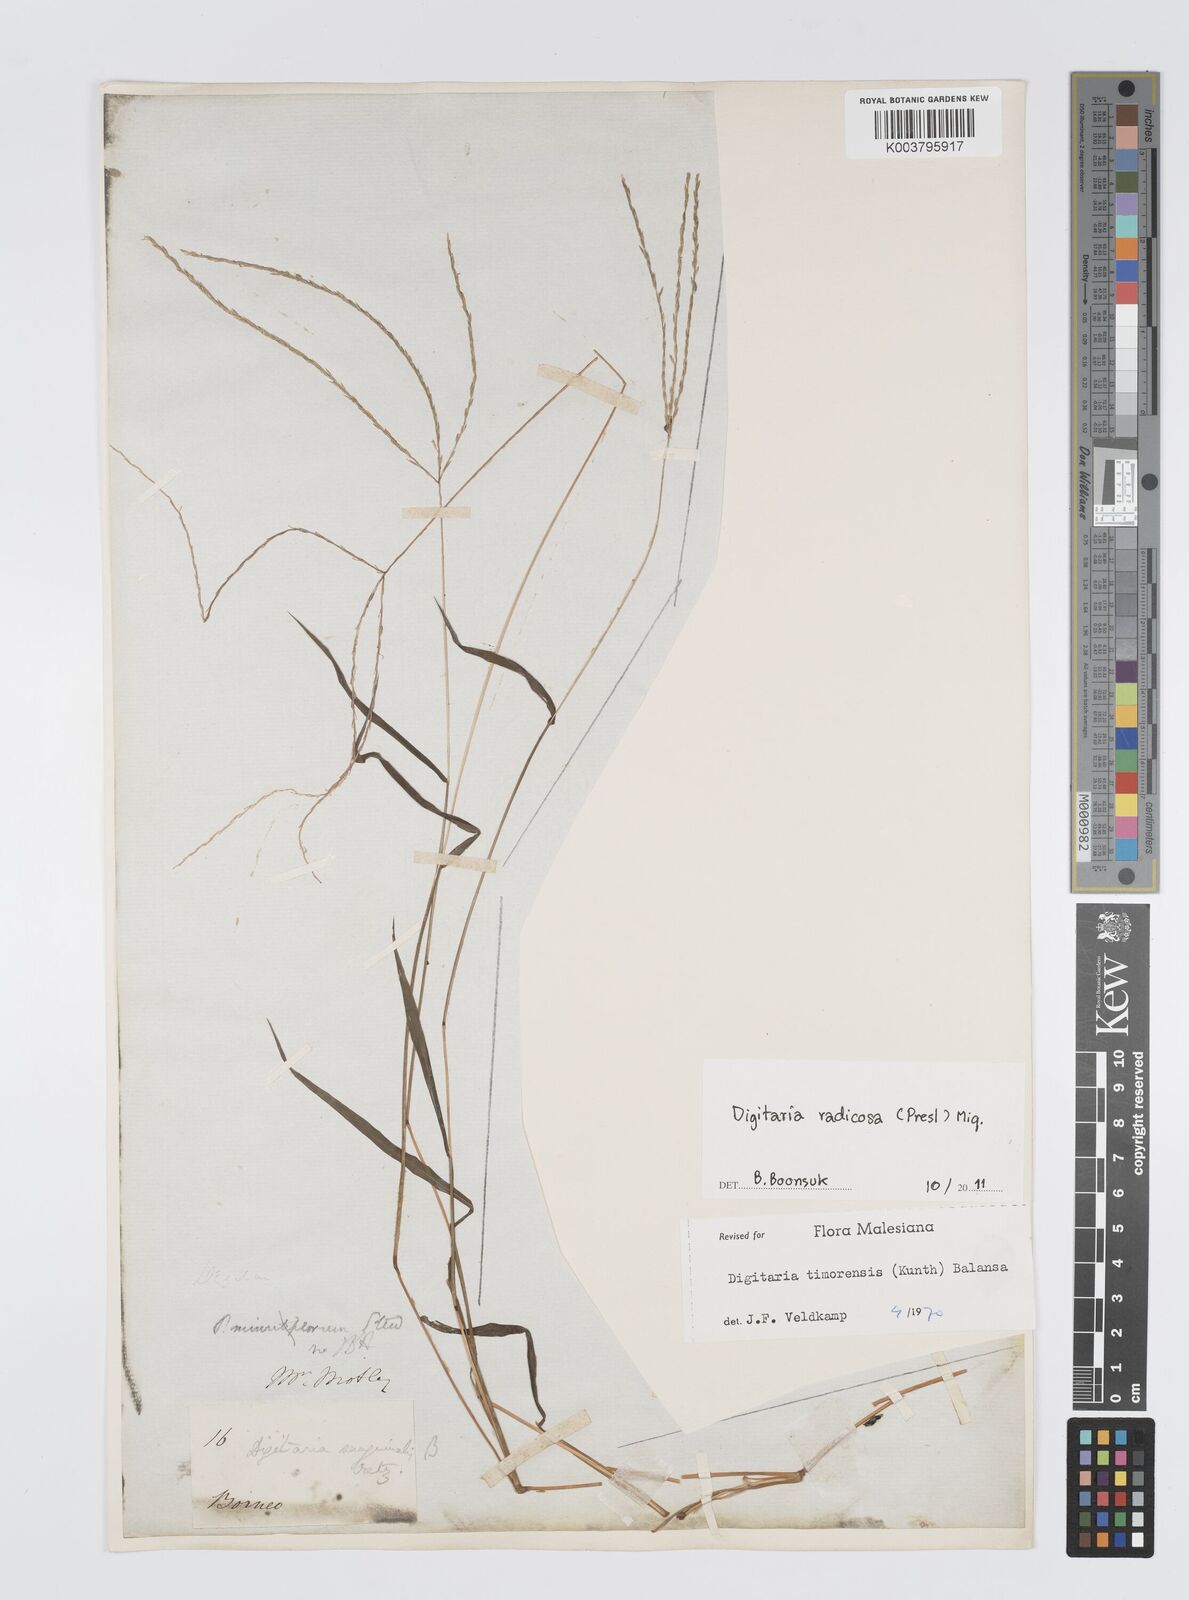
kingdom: Plantae
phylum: Tracheophyta
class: Liliopsida
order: Poales
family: Poaceae
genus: Digitaria
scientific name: Digitaria radicosa
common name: Trailing crabgrass
